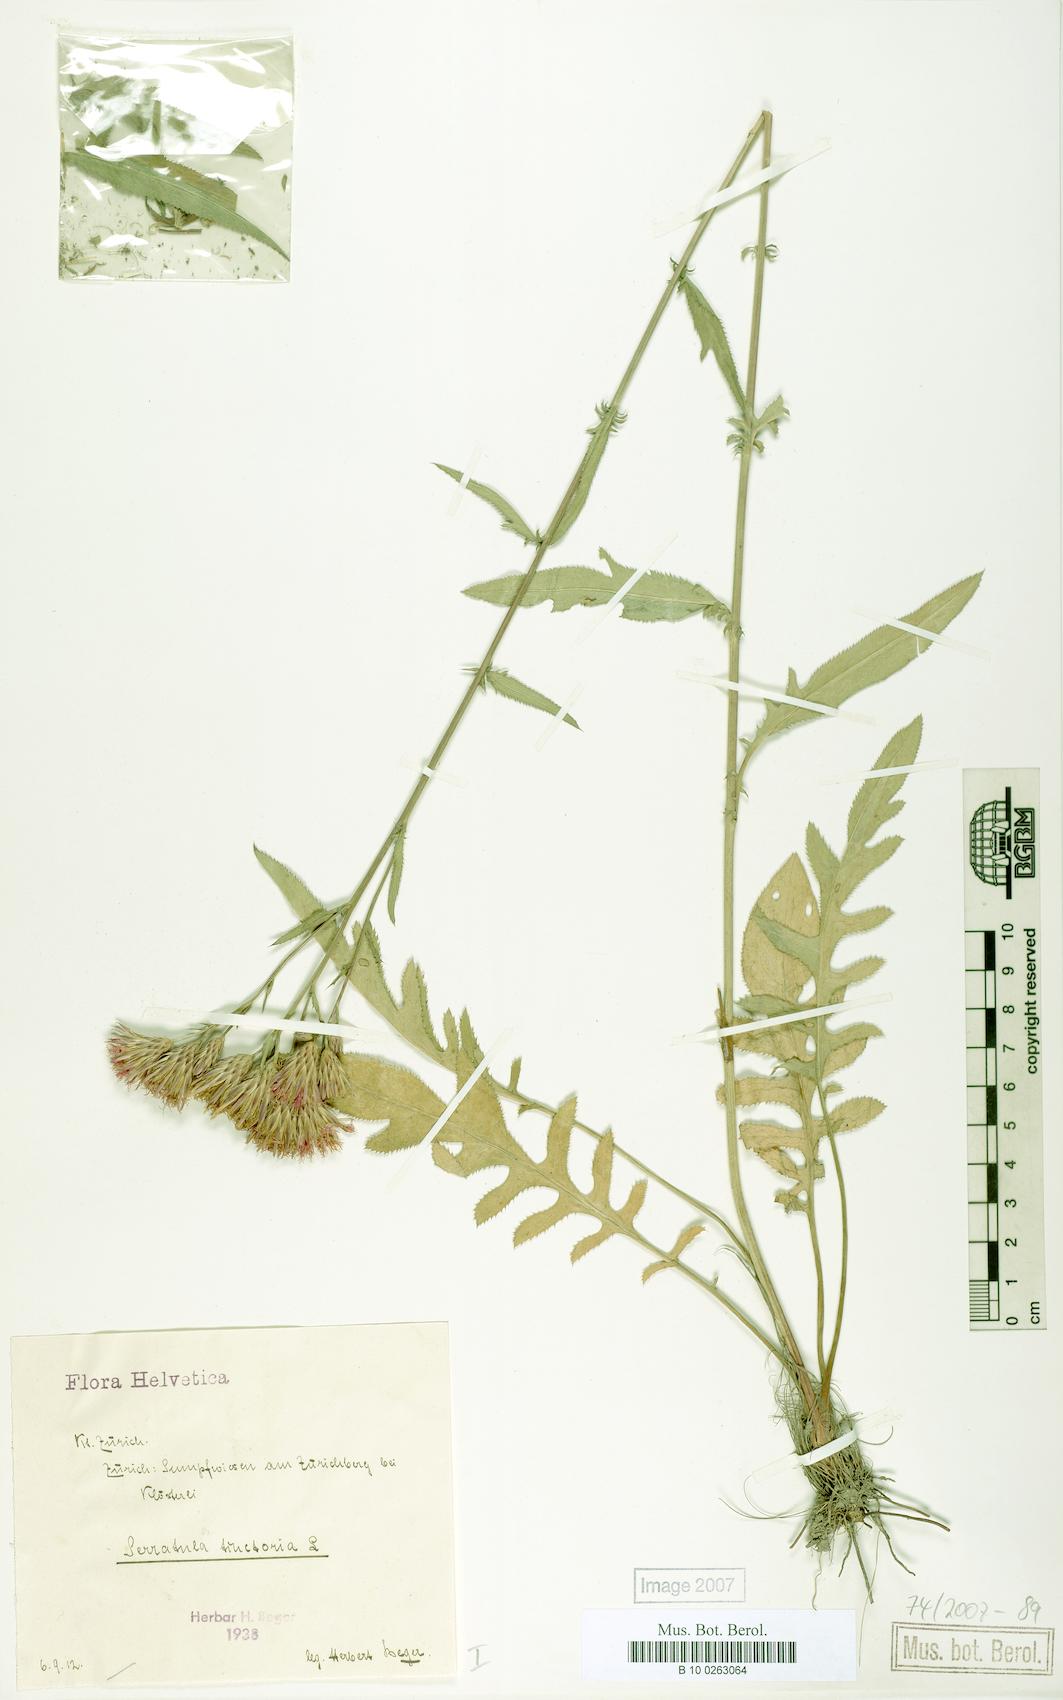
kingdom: Plantae
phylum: Tracheophyta
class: Magnoliopsida
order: Asterales
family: Asteraceae
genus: Serratula
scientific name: Serratula tinctoria
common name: Saw-wort
